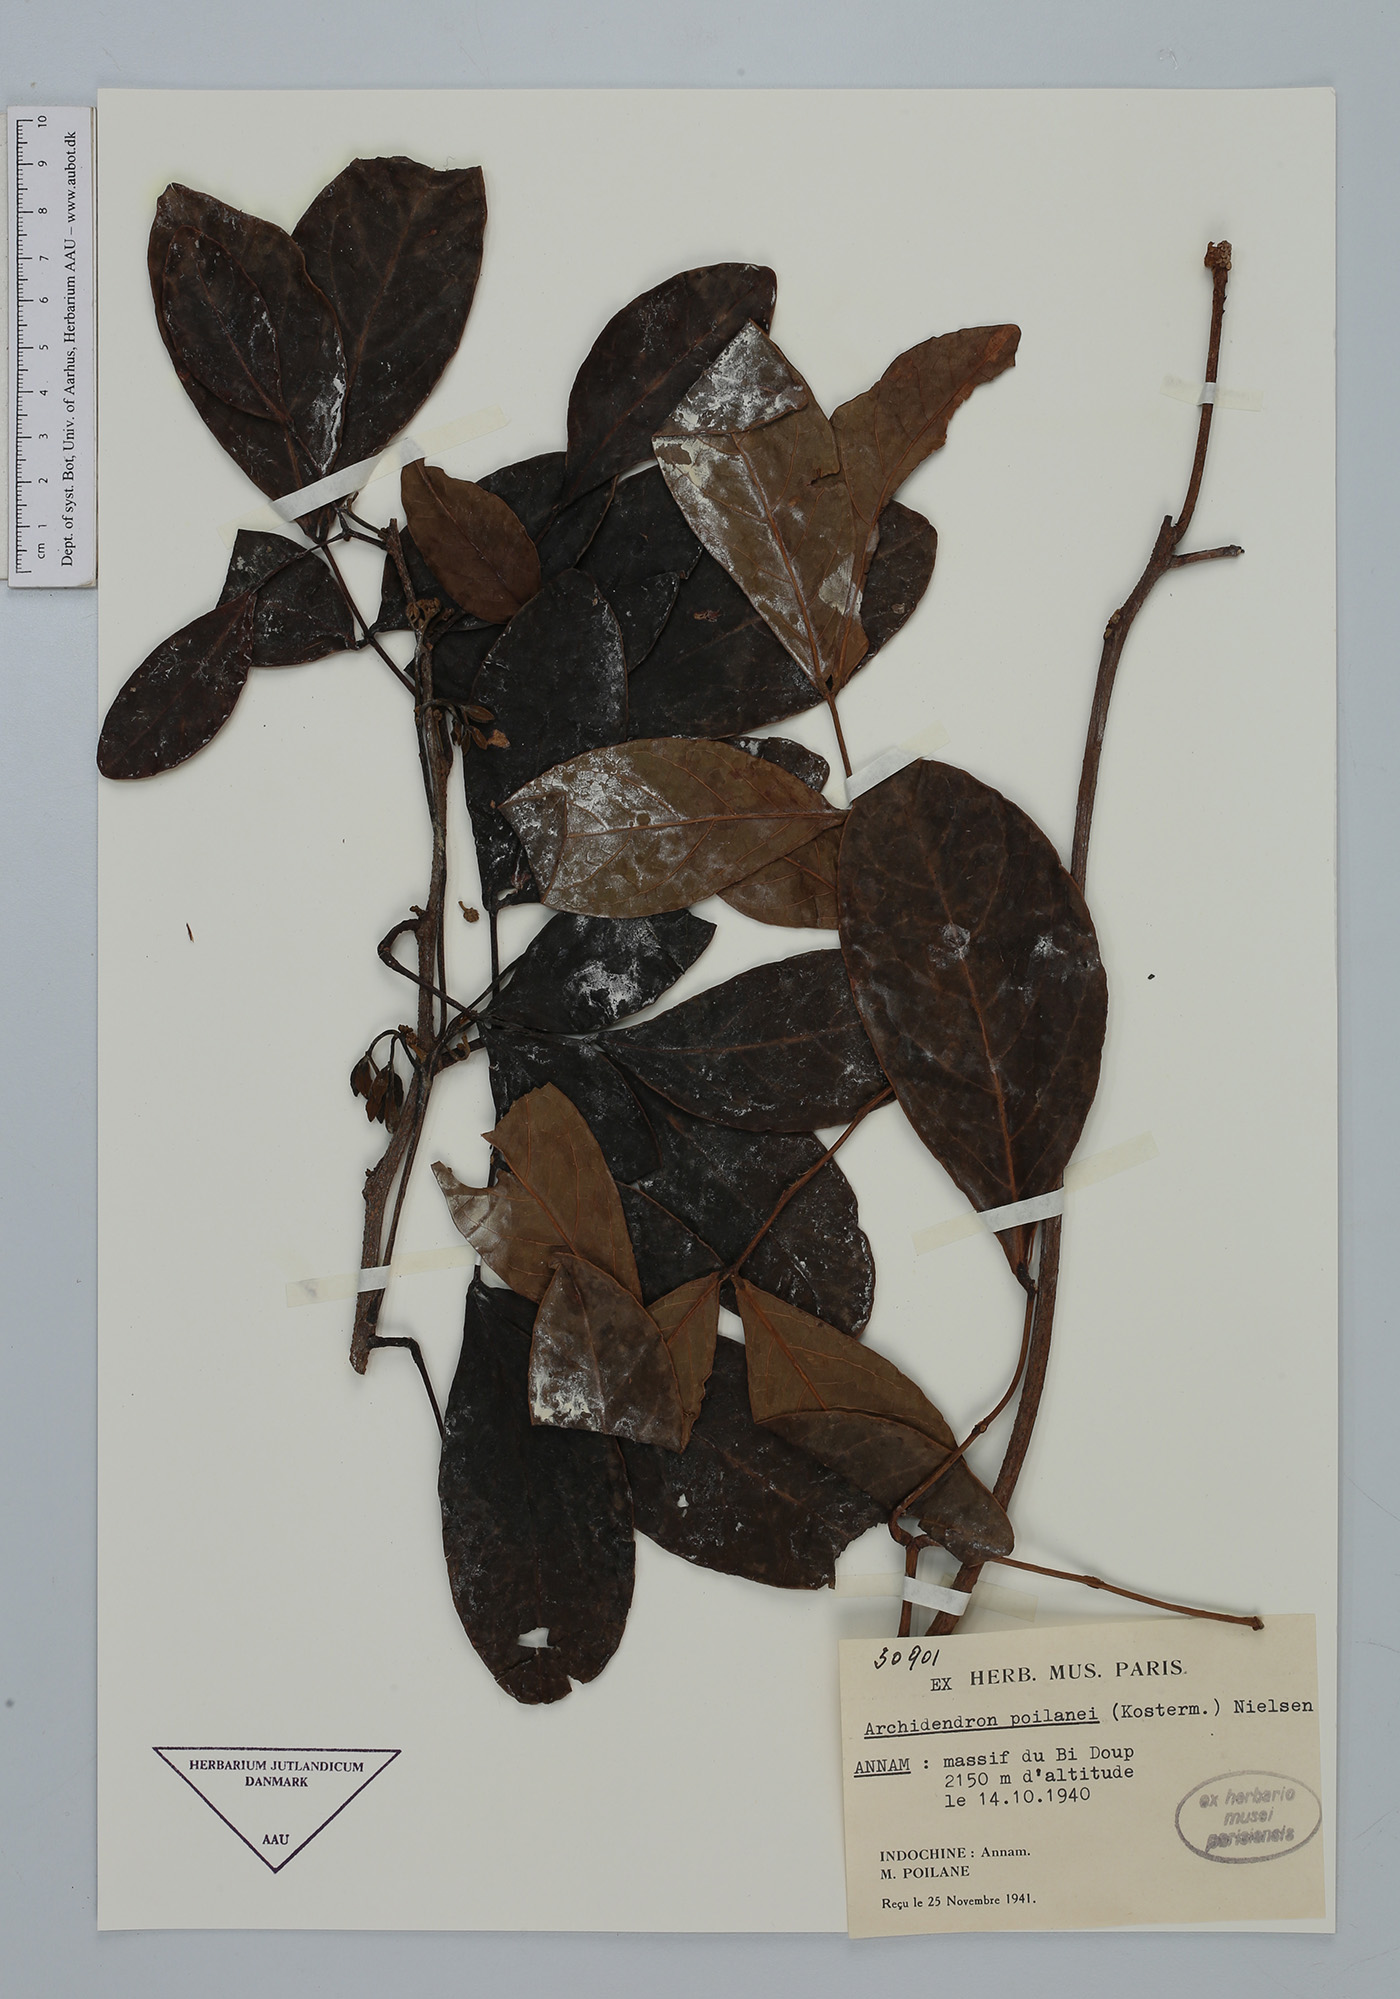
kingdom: Plantae
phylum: Tracheophyta
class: Magnoliopsida
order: Fabales
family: Fabaceae
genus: Archidendron
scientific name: Archidendron poilanei
